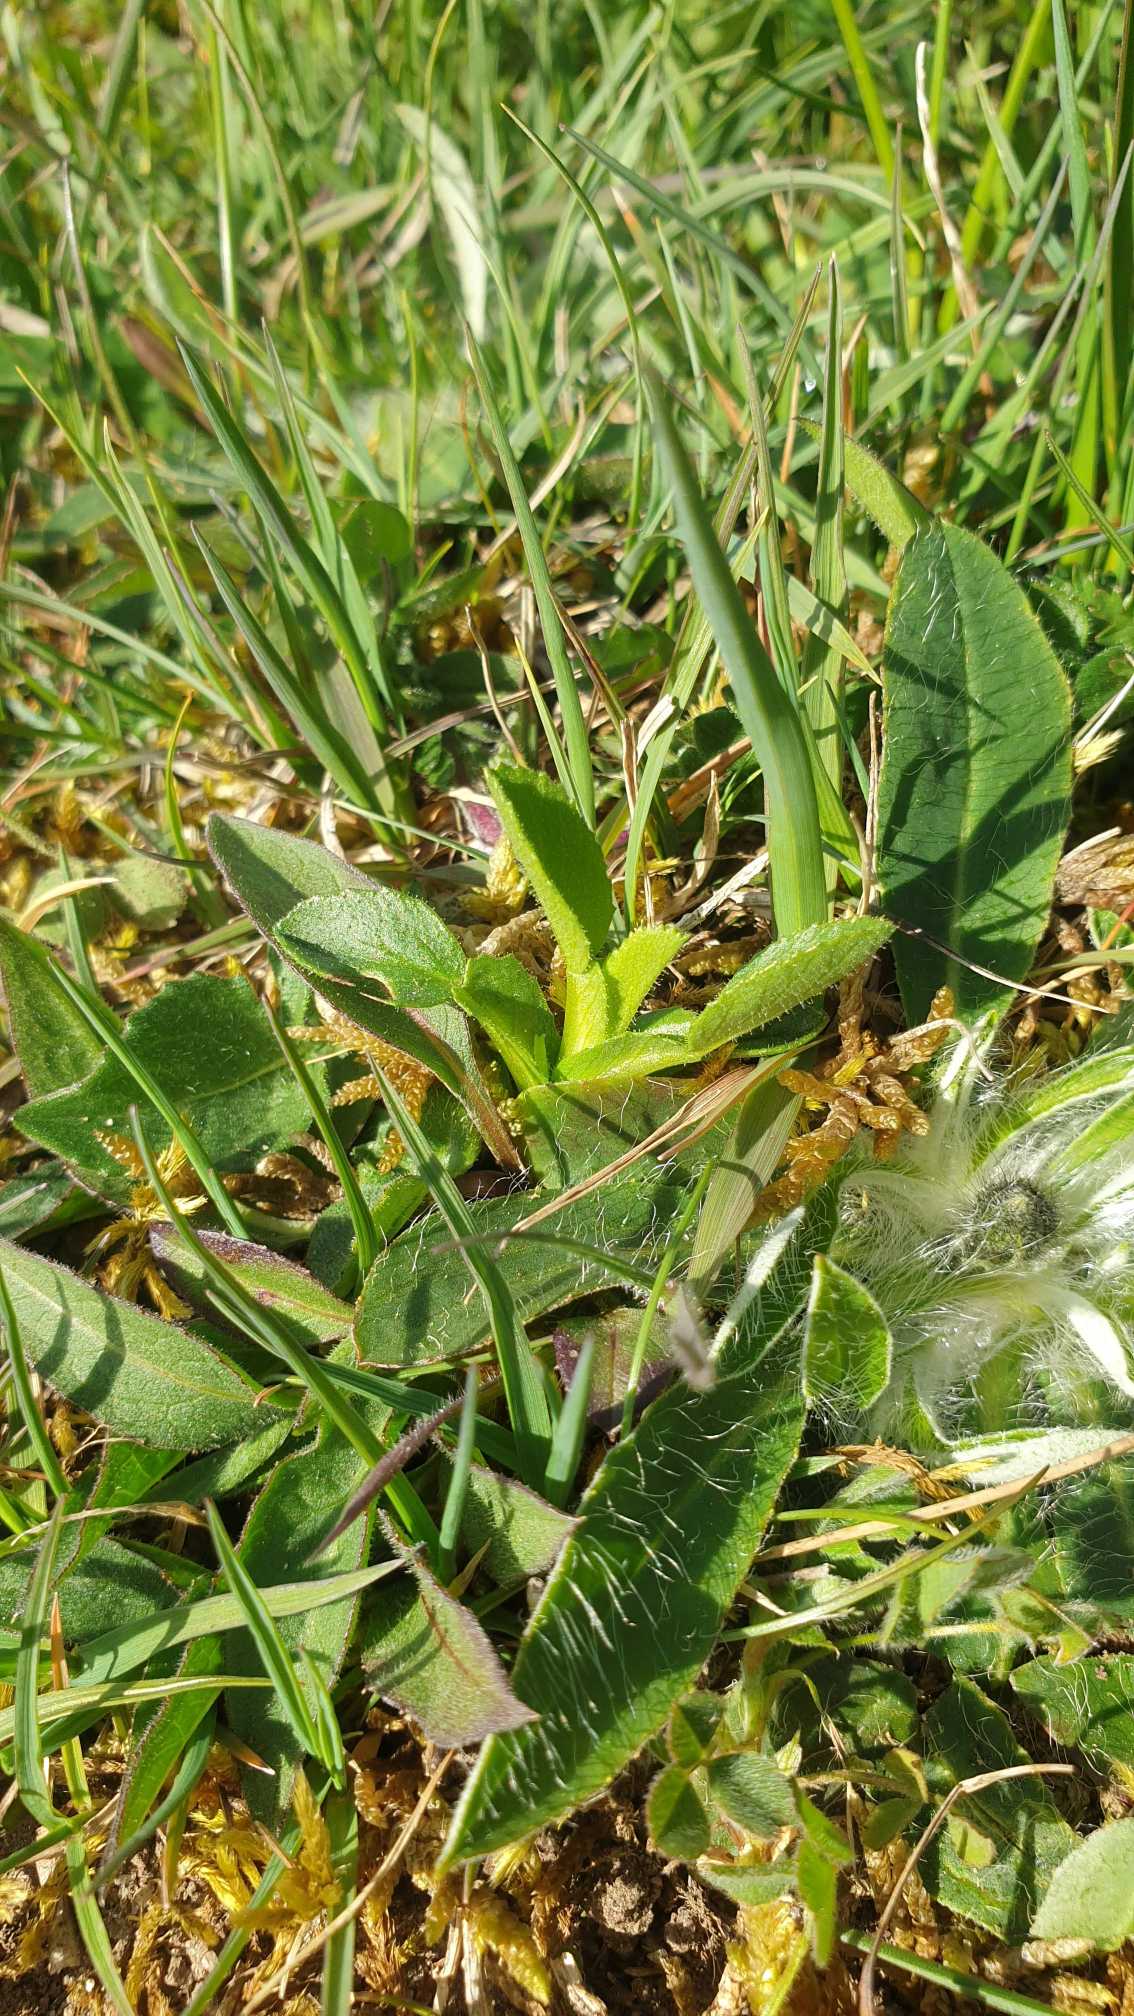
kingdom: Plantae
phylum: Tracheophyta
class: Magnoliopsida
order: Fabales
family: Fabaceae
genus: Ononis
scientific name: Ononis spinosa
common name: Krageklo
